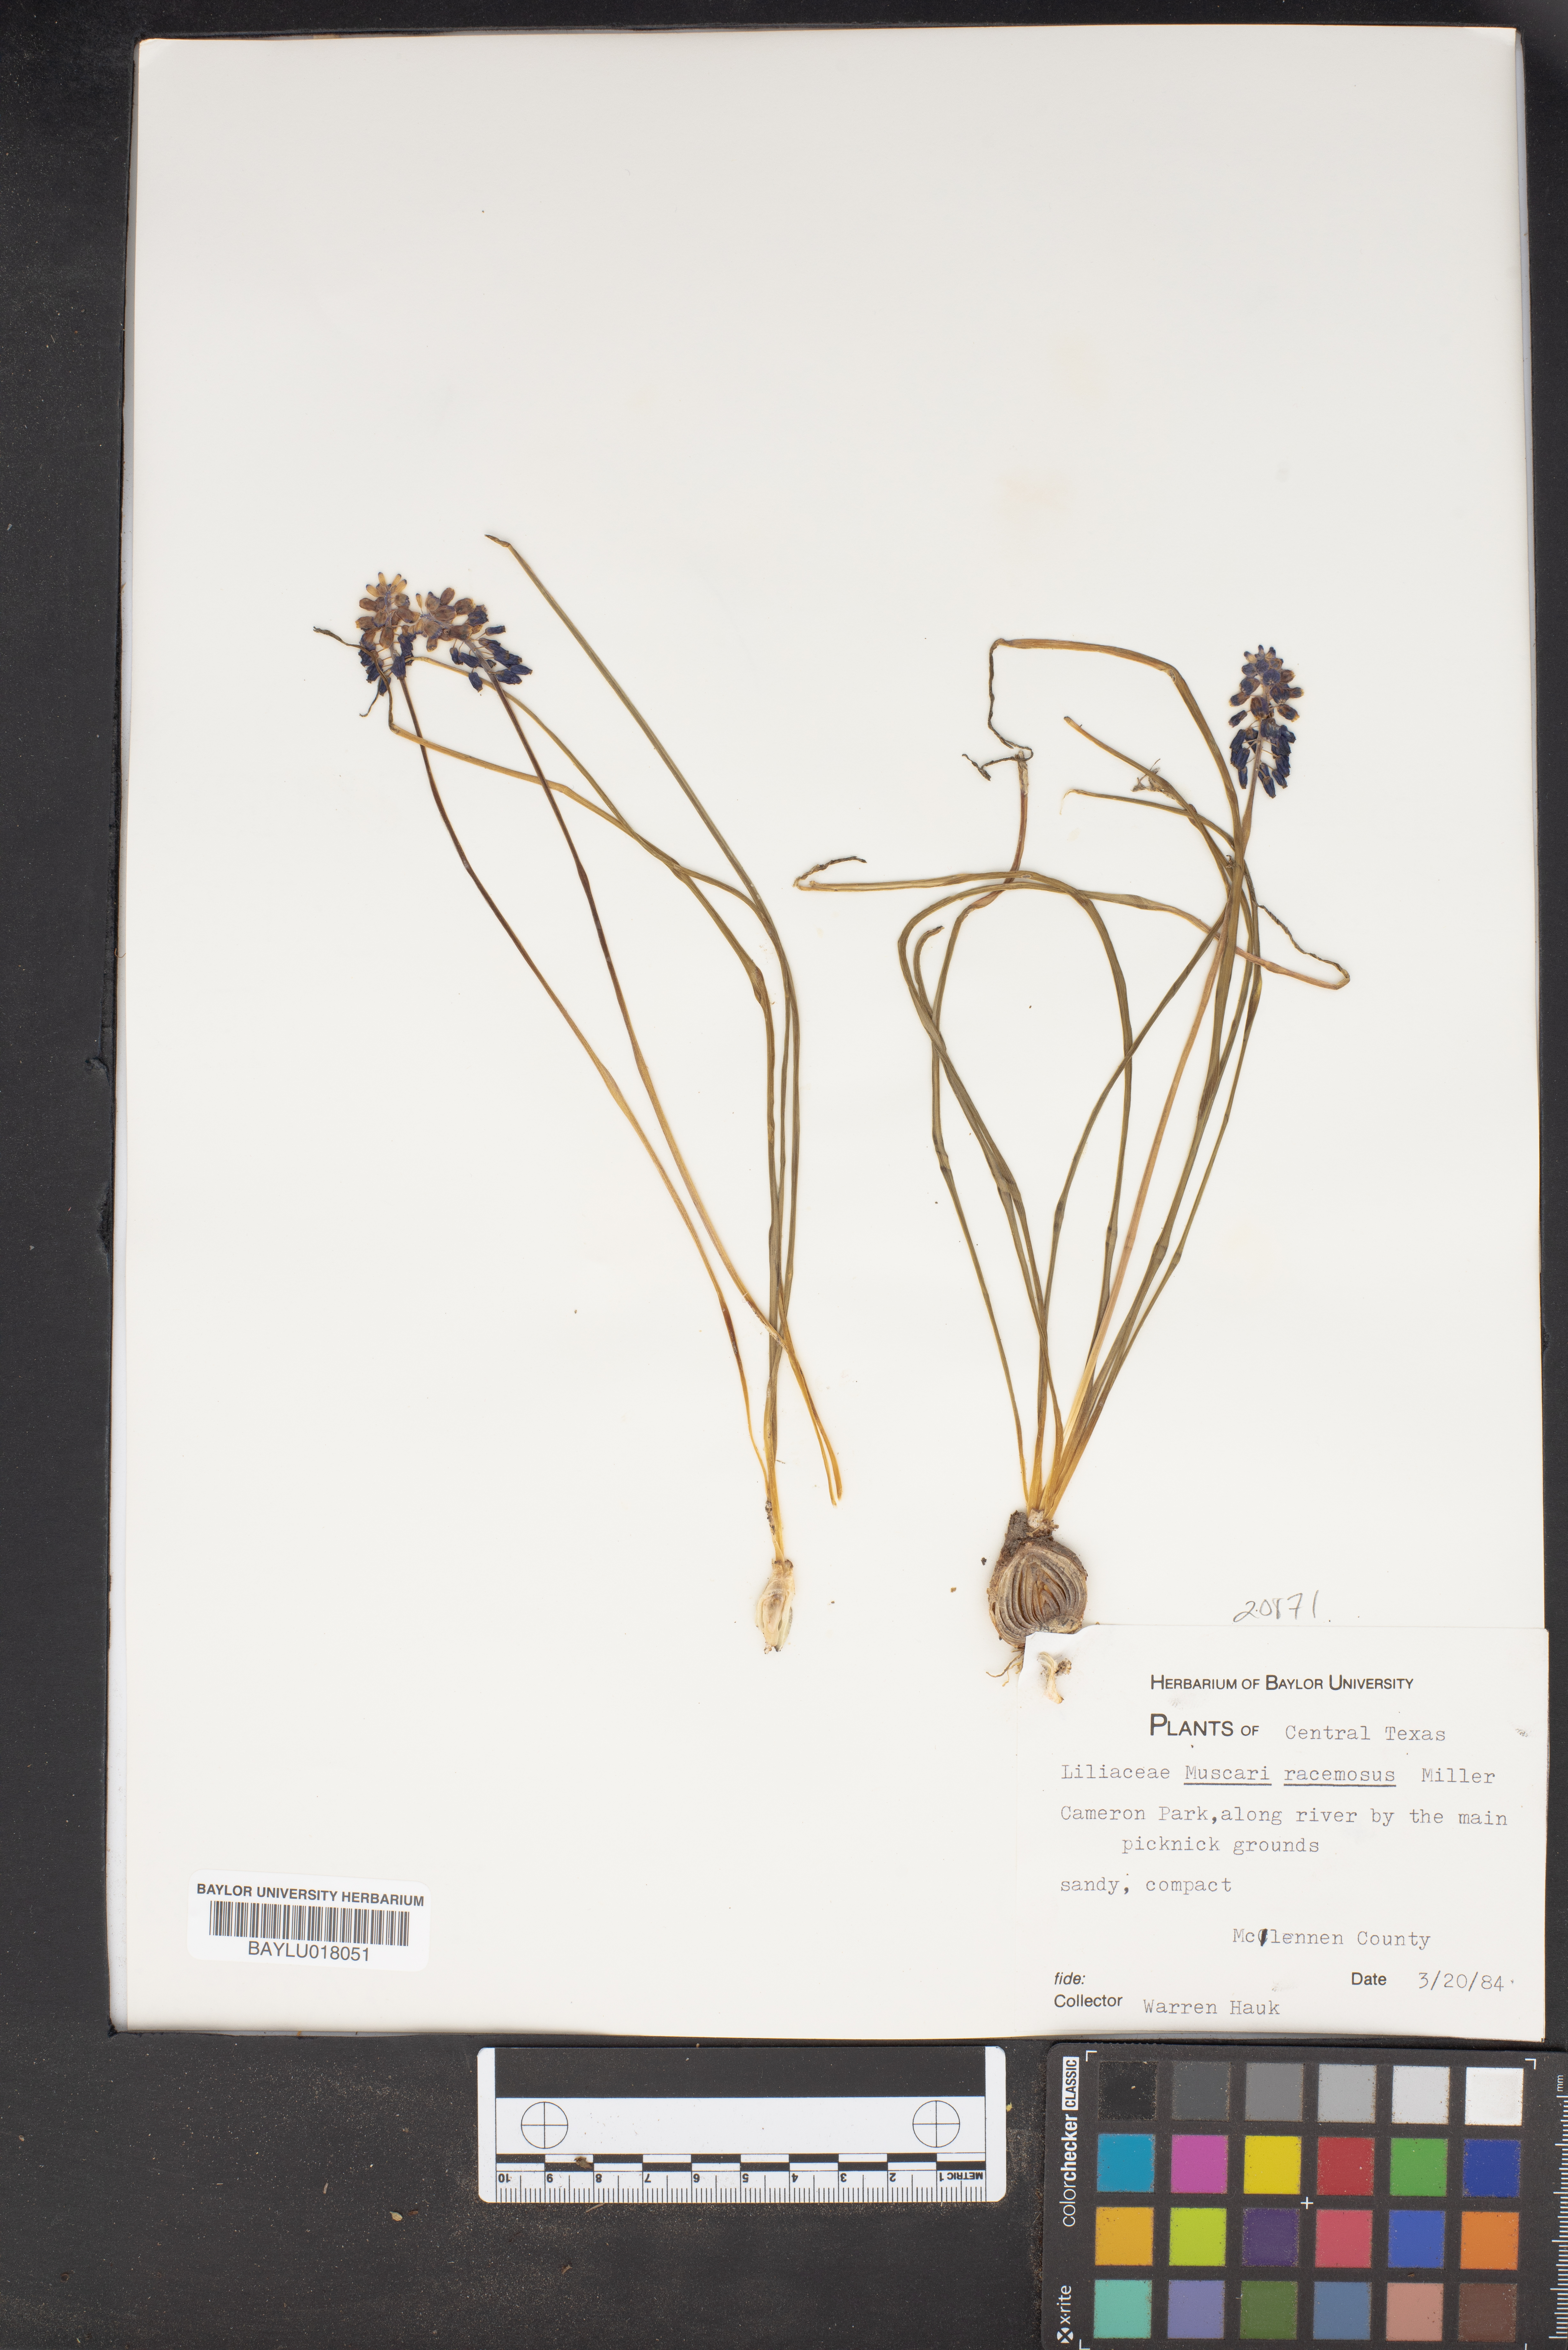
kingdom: Plantae
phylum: Tracheophyta
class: Liliopsida
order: Asparagales
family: Asparagaceae
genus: Muscarimia
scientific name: Muscarimia muscari
